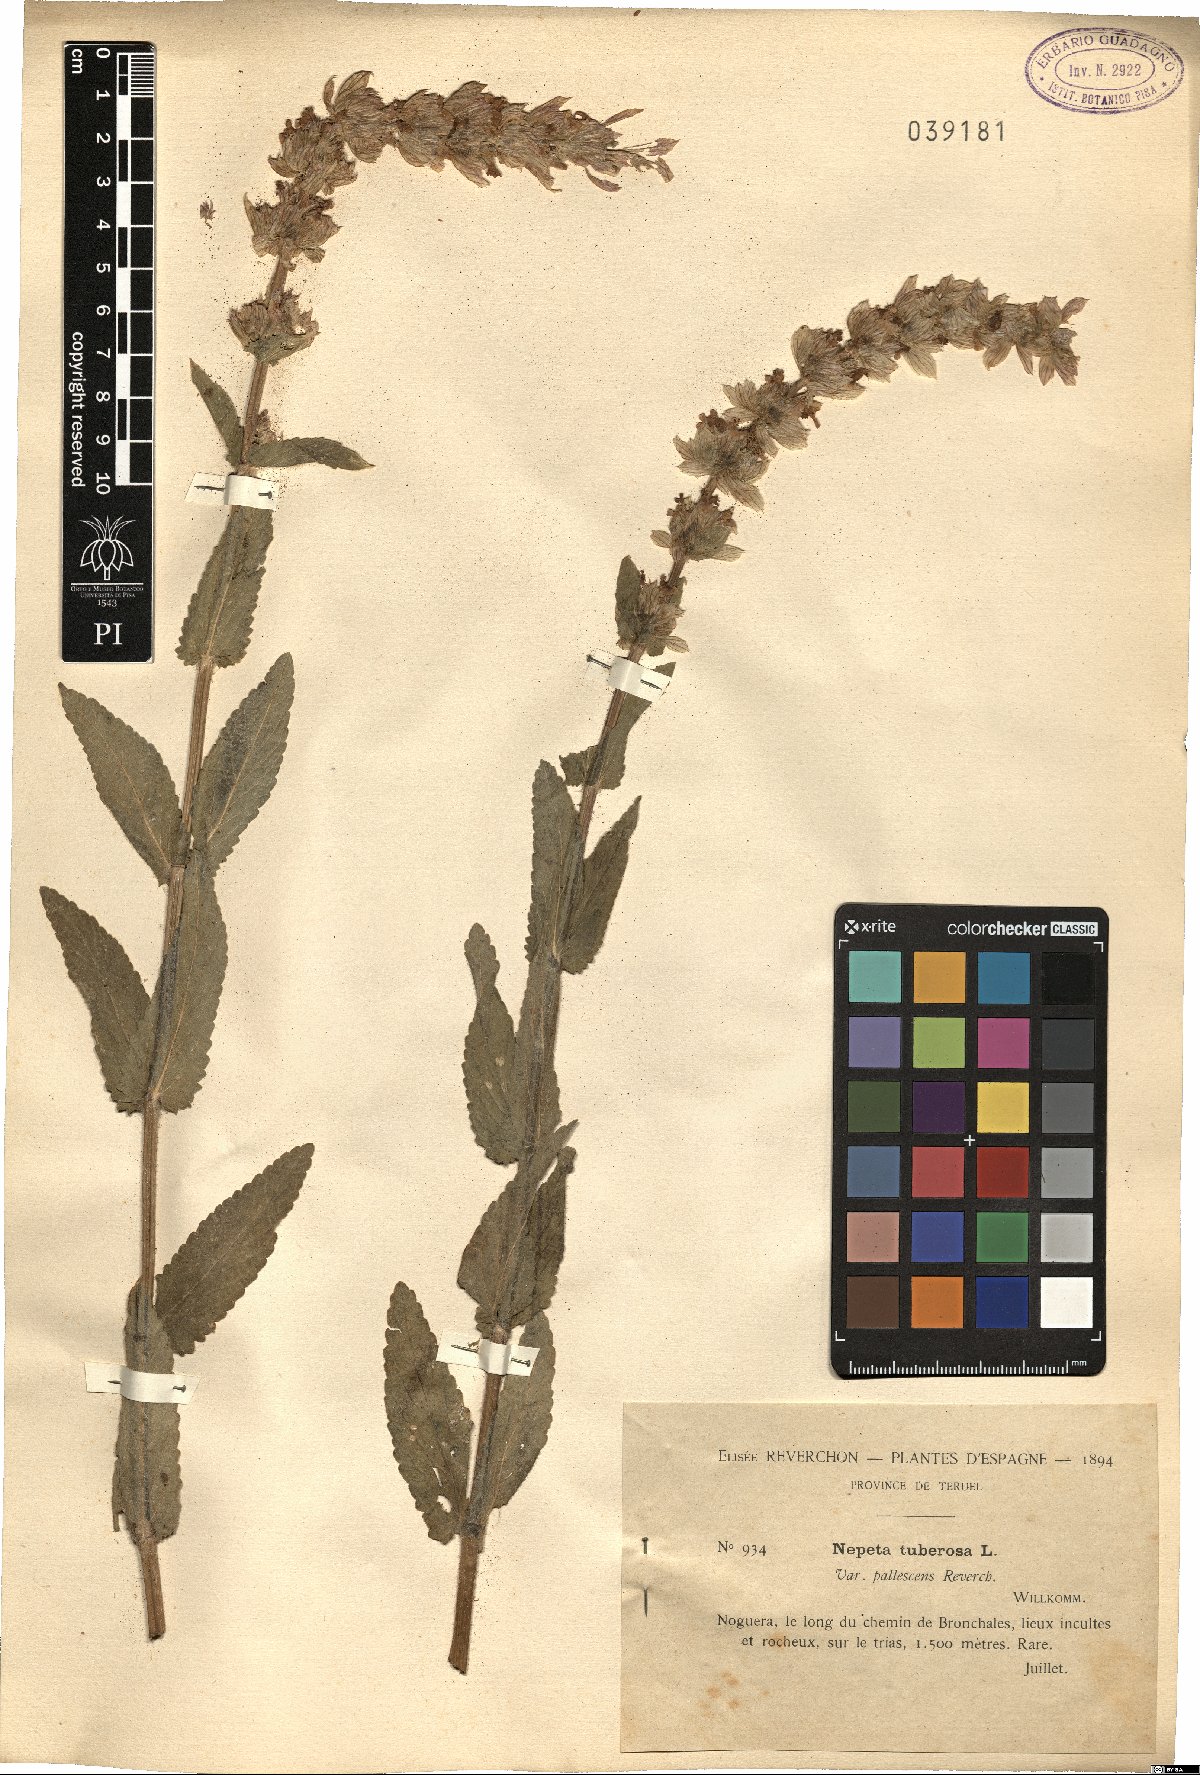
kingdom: Plantae
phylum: Tracheophyta
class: Magnoliopsida
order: Lamiales
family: Lamiaceae
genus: Nepeta
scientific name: Nepeta tuberosa
